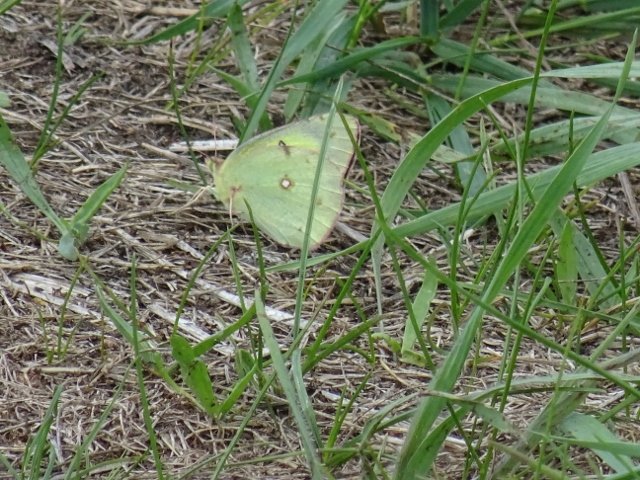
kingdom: Animalia
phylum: Arthropoda
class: Insecta
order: Lepidoptera
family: Pieridae
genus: Colias
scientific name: Colias philodice
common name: Clouded Sulphur
